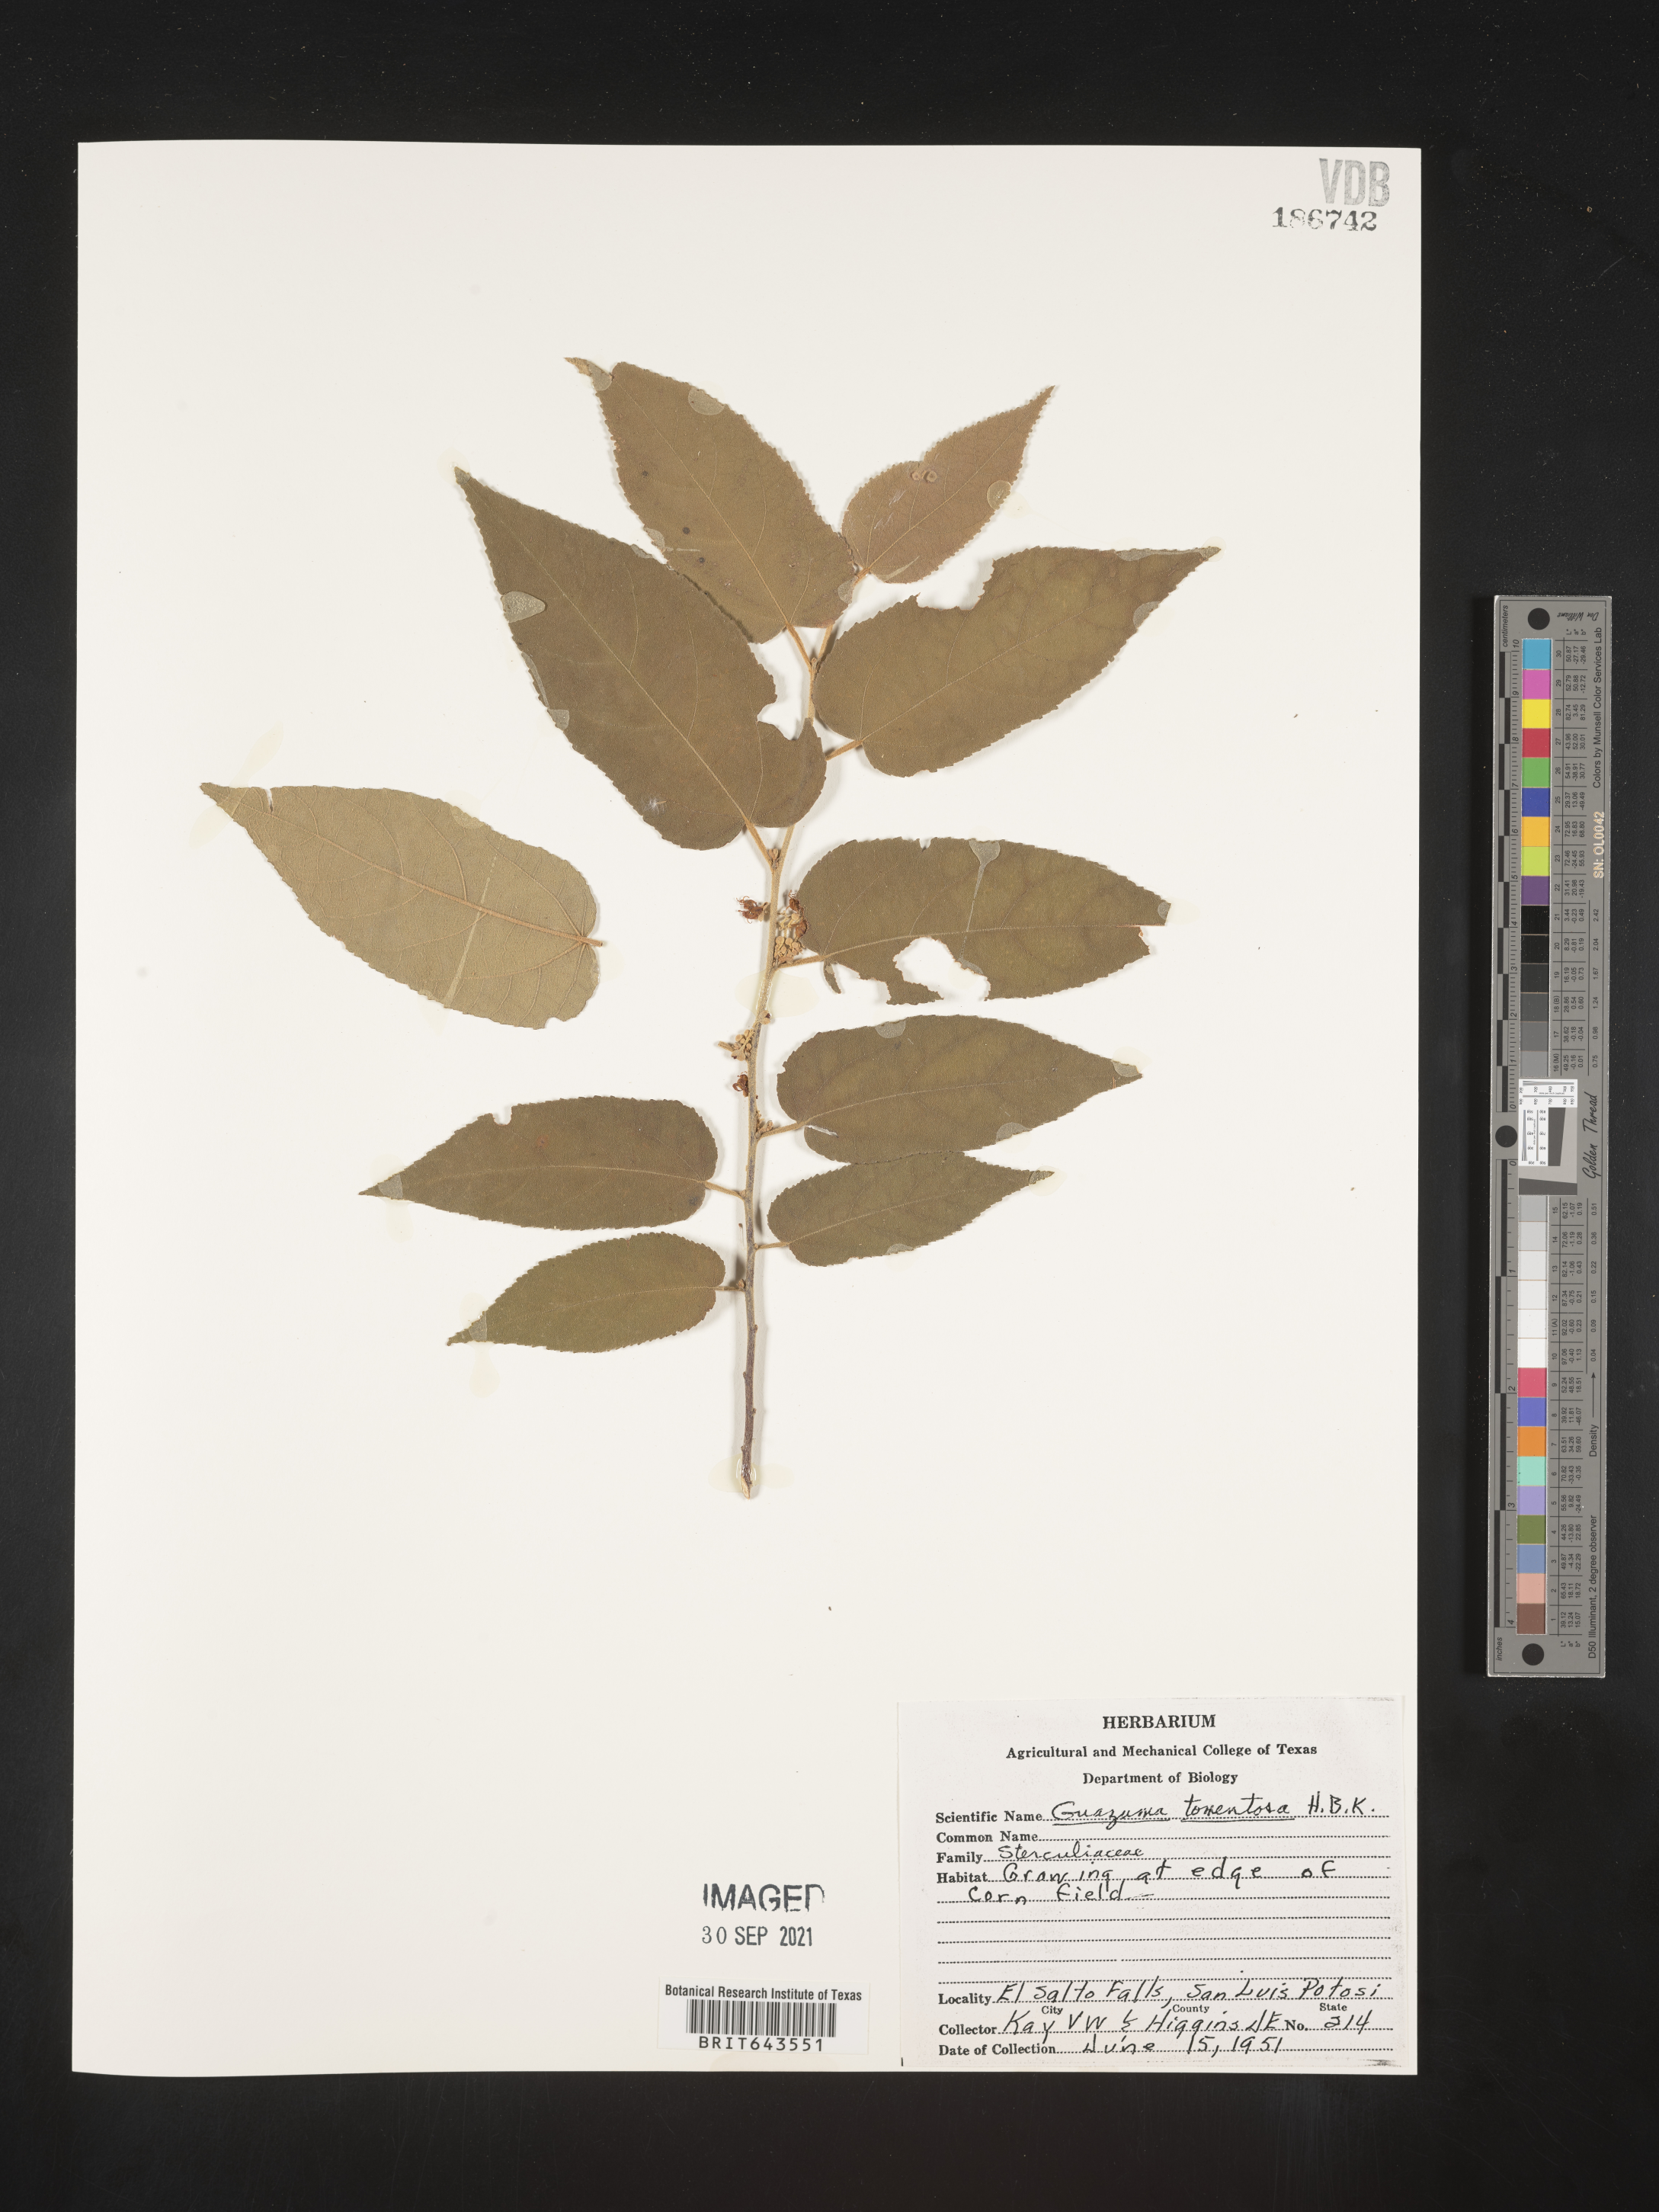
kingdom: Plantae
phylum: Tracheophyta
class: Magnoliopsida
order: Malvales
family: Malvaceae
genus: Guazuma
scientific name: Guazuma
